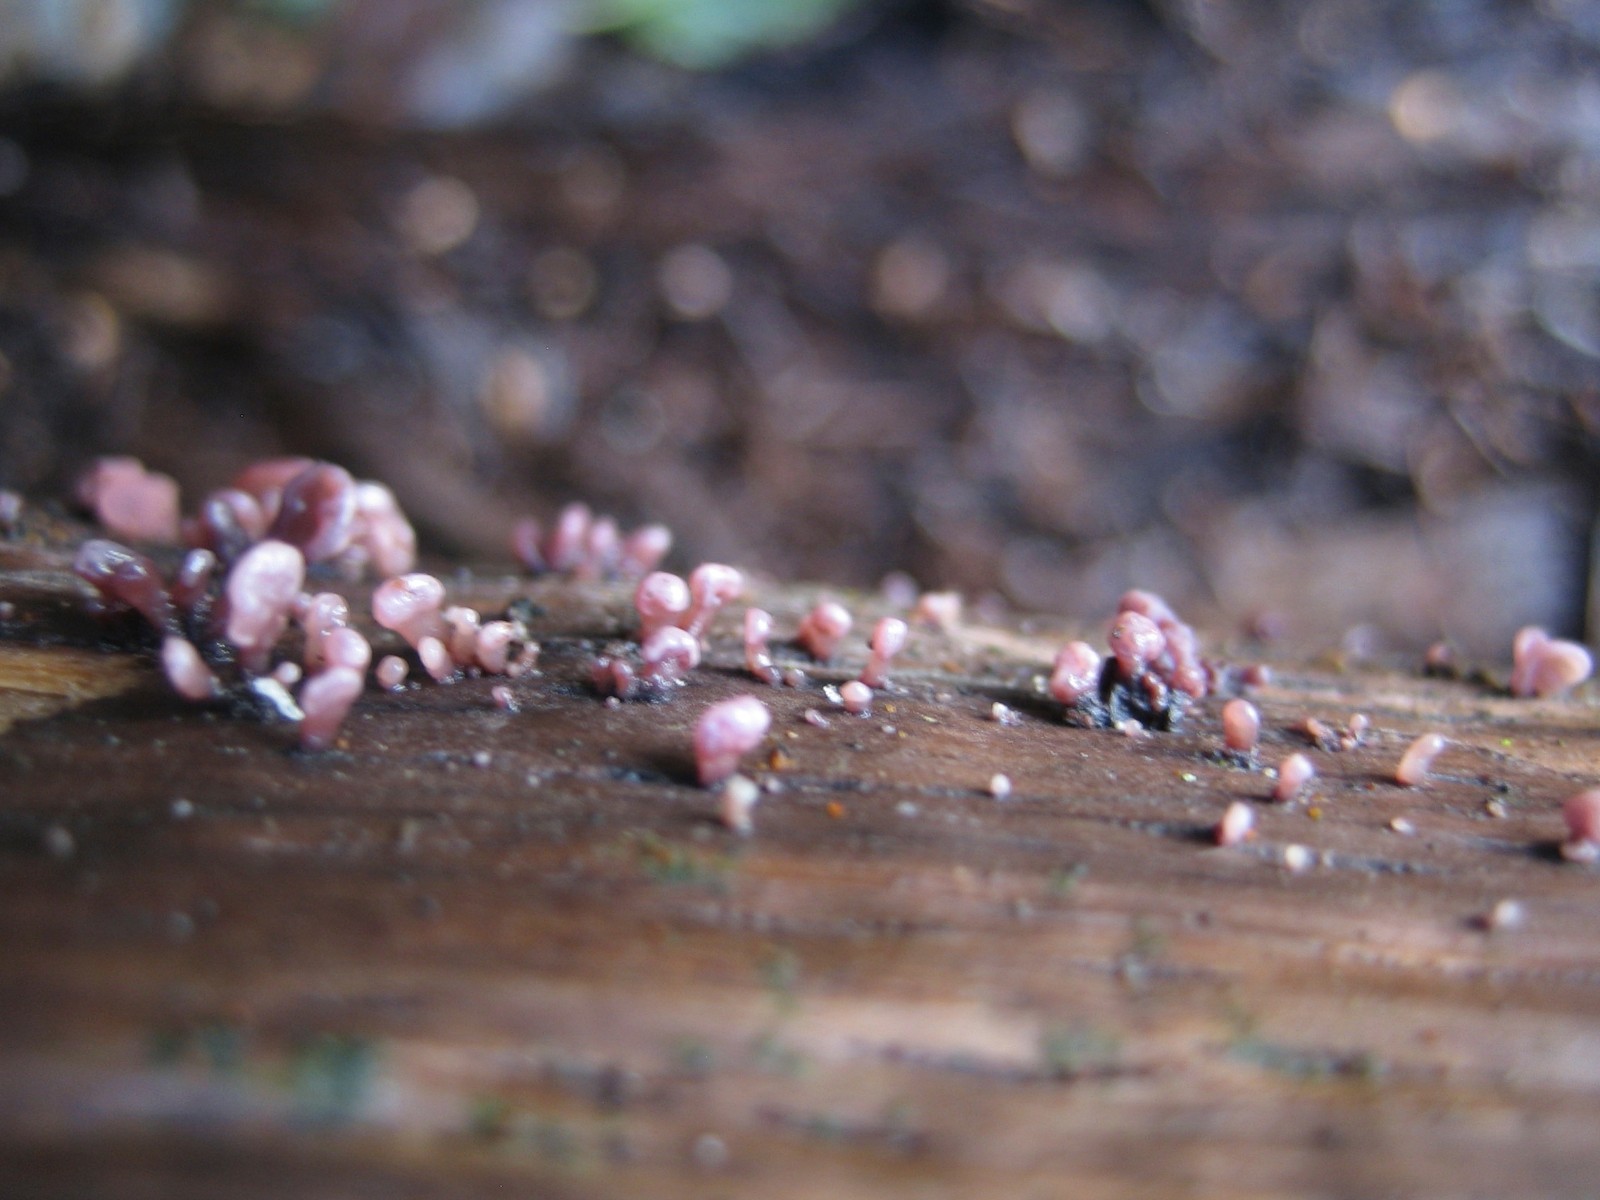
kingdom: Fungi
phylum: Ascomycota
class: Leotiomycetes
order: Helotiales
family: Gelatinodiscaceae
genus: Ascocoryne
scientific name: Ascocoryne sarcoides
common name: rødlilla sejskive
